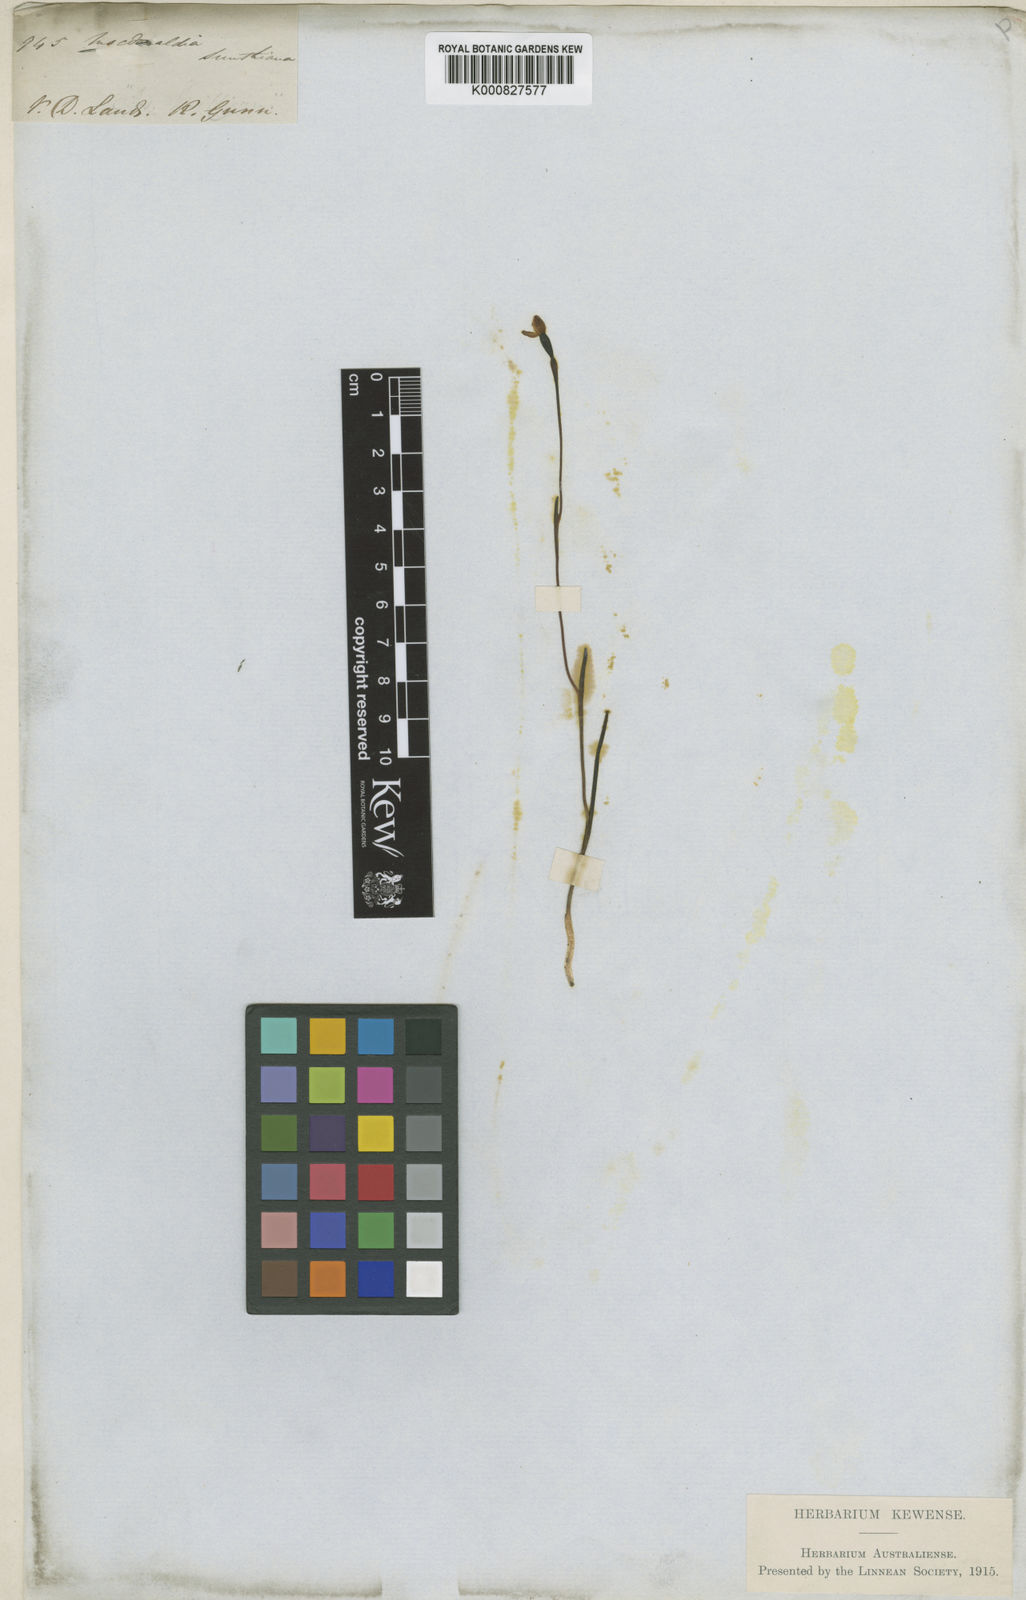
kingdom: Plantae
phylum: Tracheophyta
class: Liliopsida
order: Asparagales
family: Orchidaceae
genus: Thelymitra
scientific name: Thelymitra flexuosa
